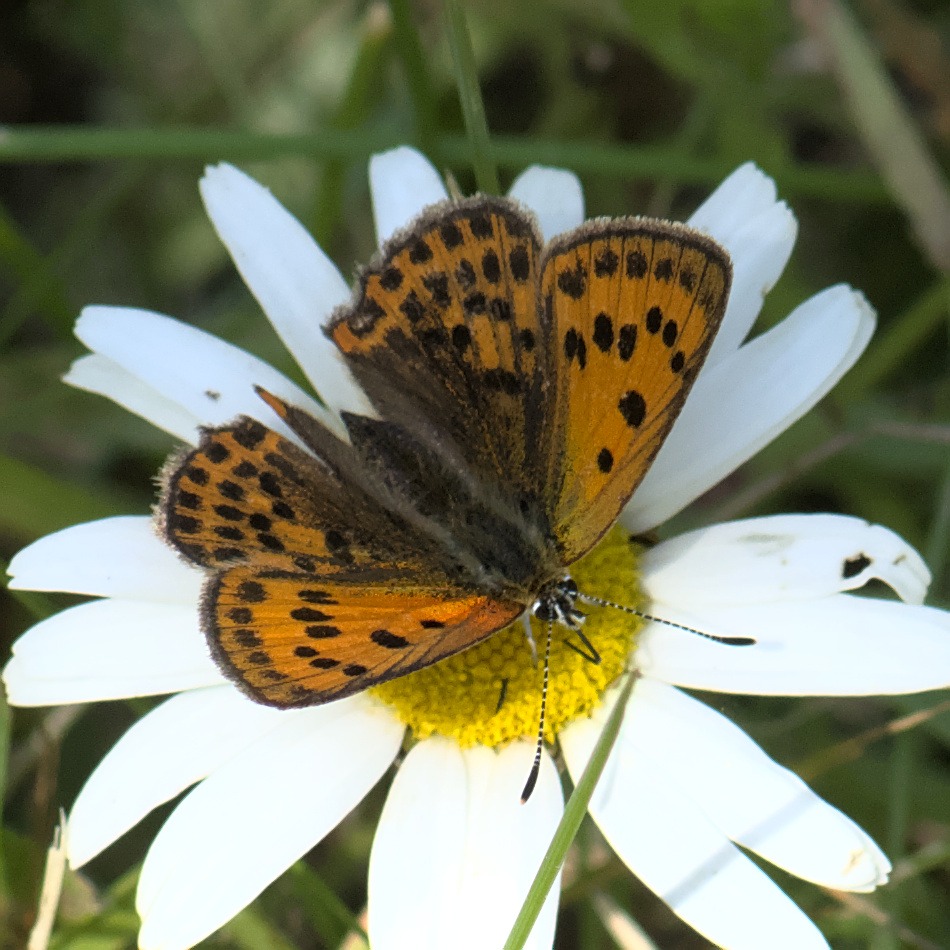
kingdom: Animalia
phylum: Arthropoda
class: Insecta
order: Lepidoptera
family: Lycaenidae
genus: Lycaena
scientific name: Lycaena virgaureae
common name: Dukatsommerfugl
